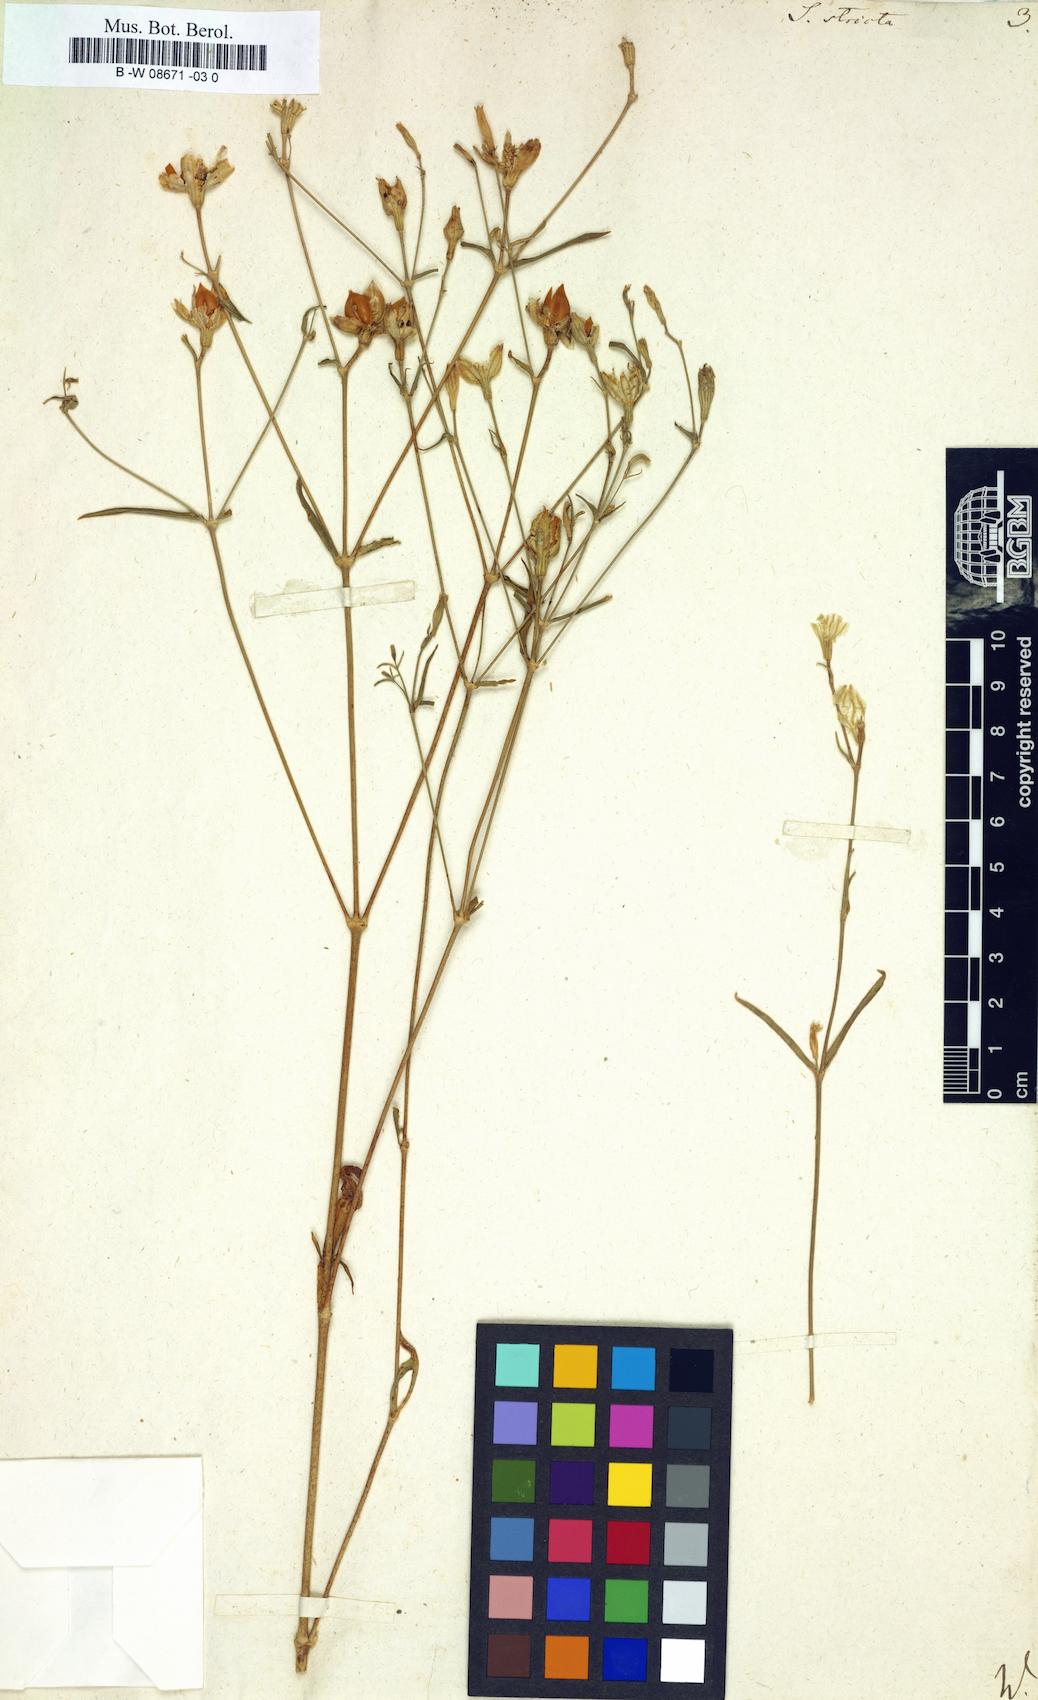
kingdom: Plantae
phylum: Tracheophyta
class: Magnoliopsida
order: Caryophyllales
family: Caryophyllaceae
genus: Silene
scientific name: Silene stricta
